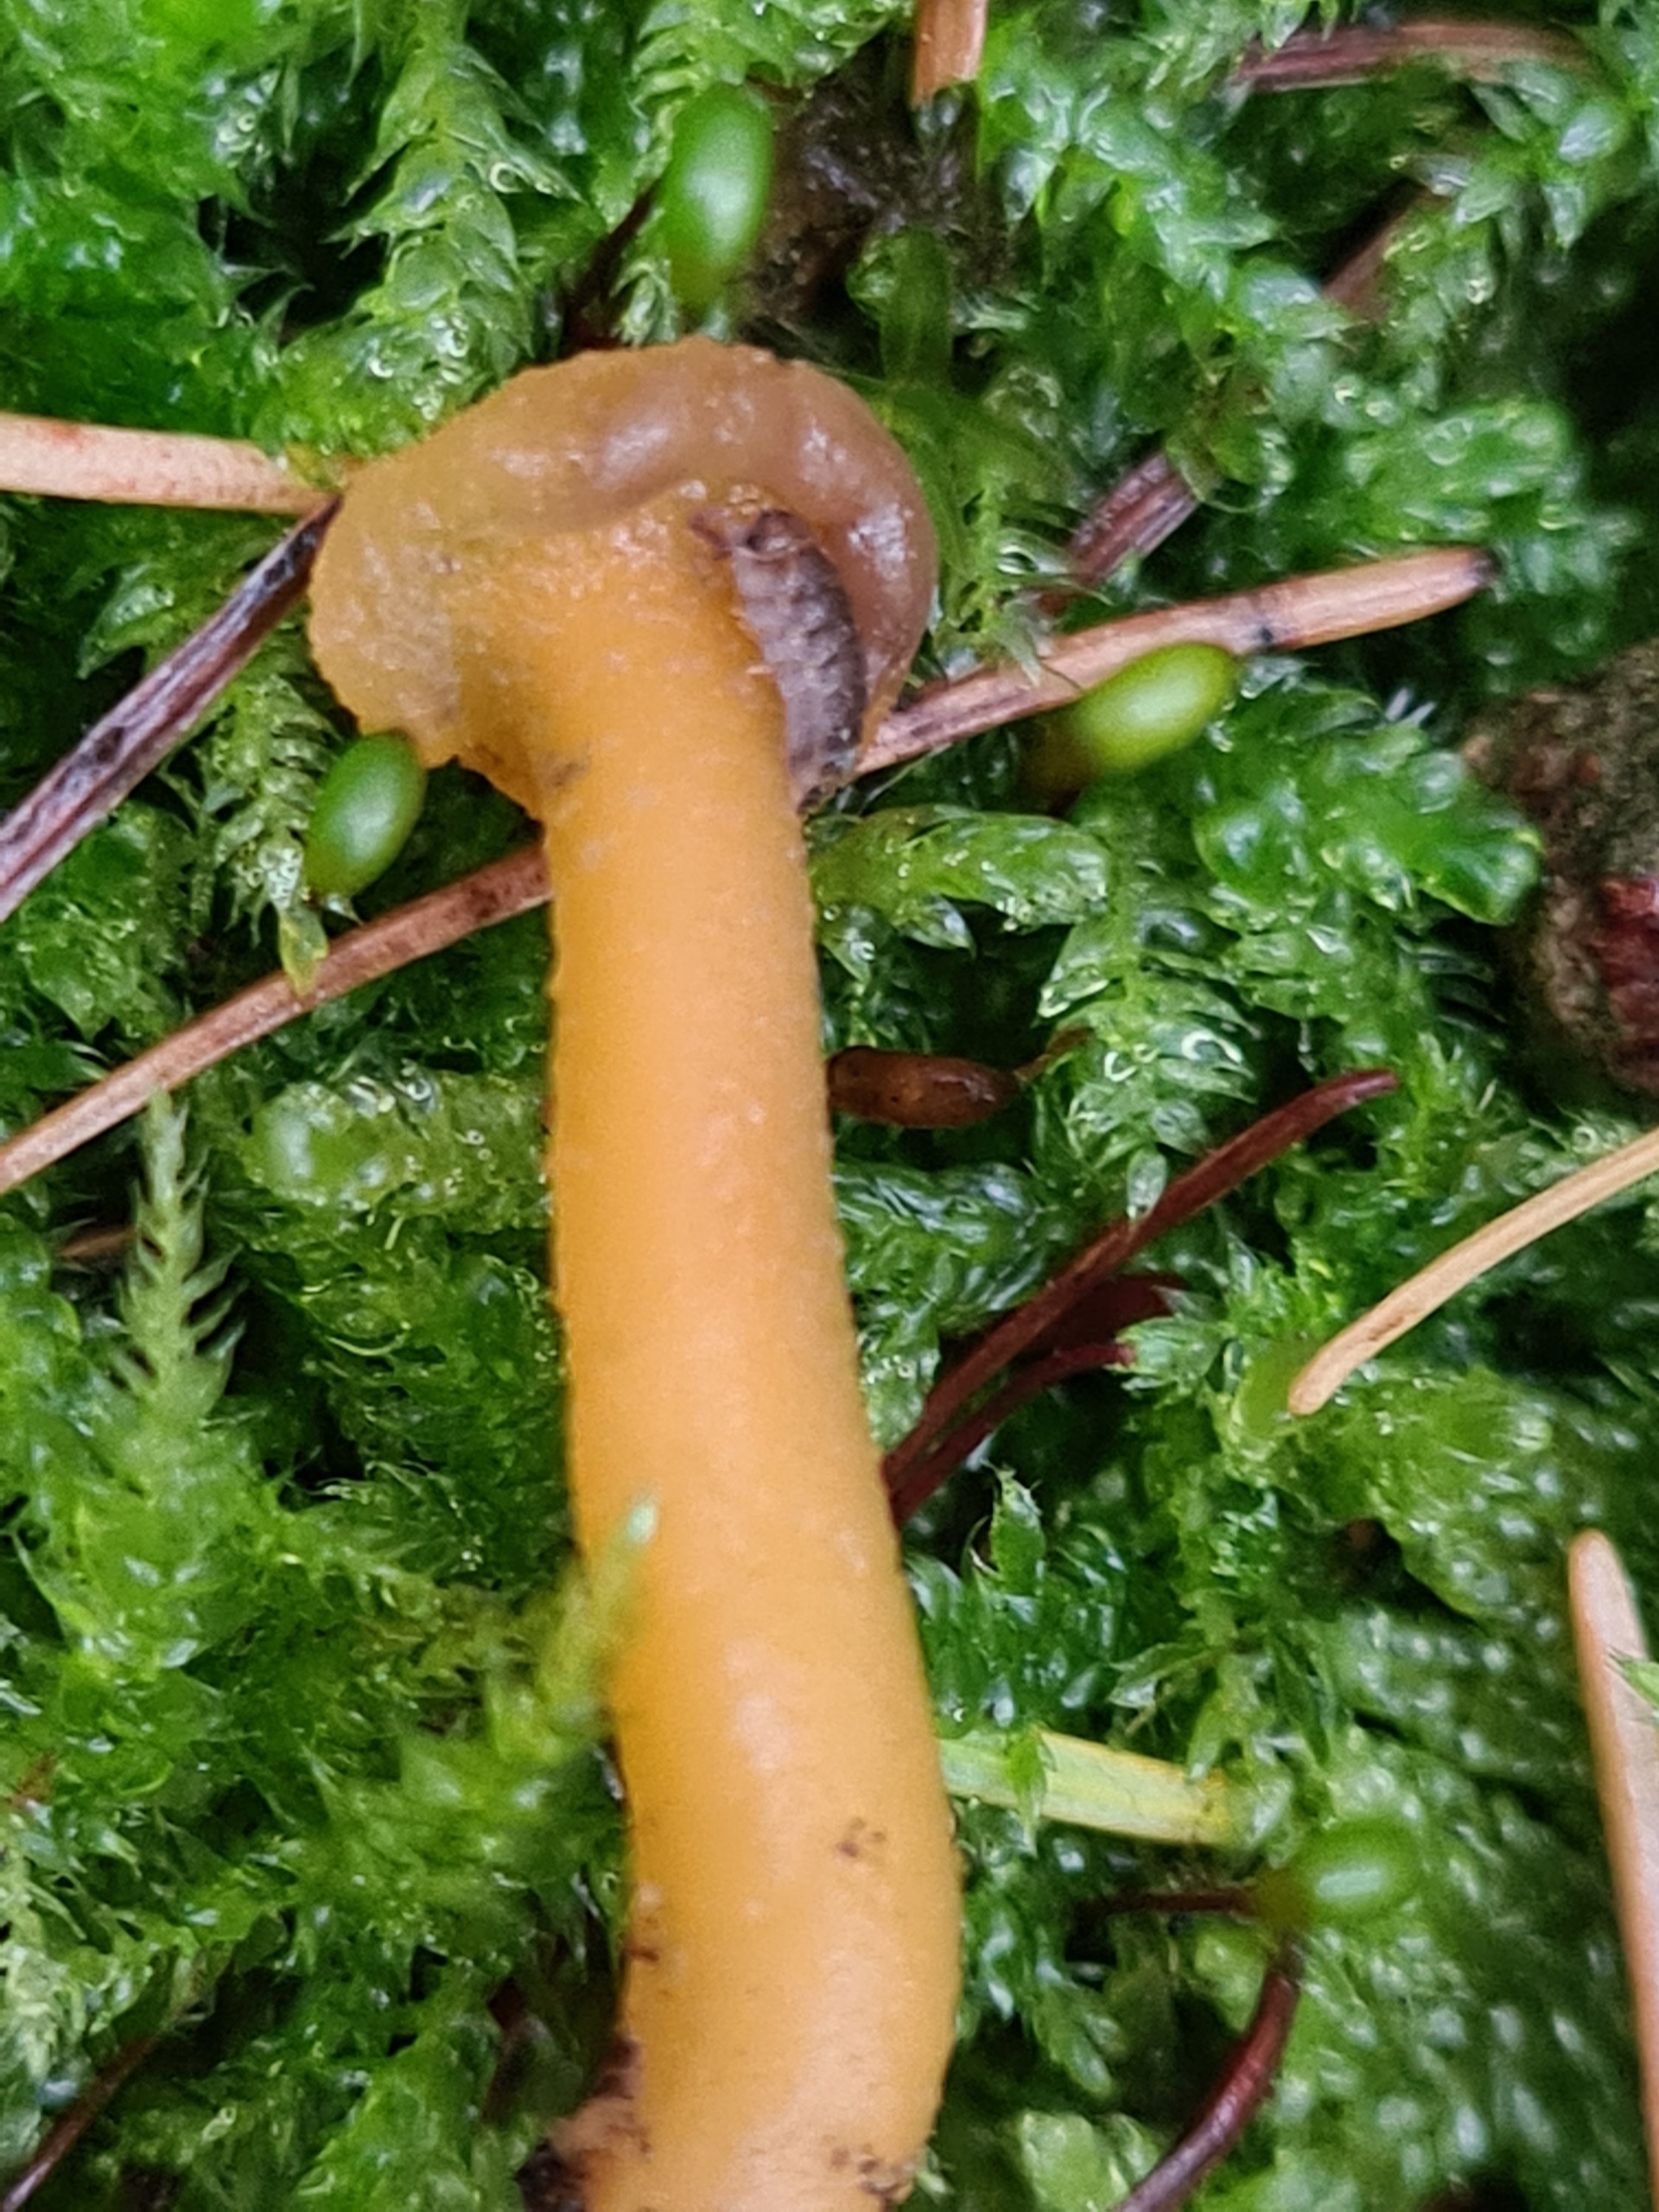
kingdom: Fungi
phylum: Ascomycota
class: Leotiomycetes
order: Leotiales
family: Leotiaceae
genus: Leotia
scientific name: Leotia
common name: Ravsvamp
